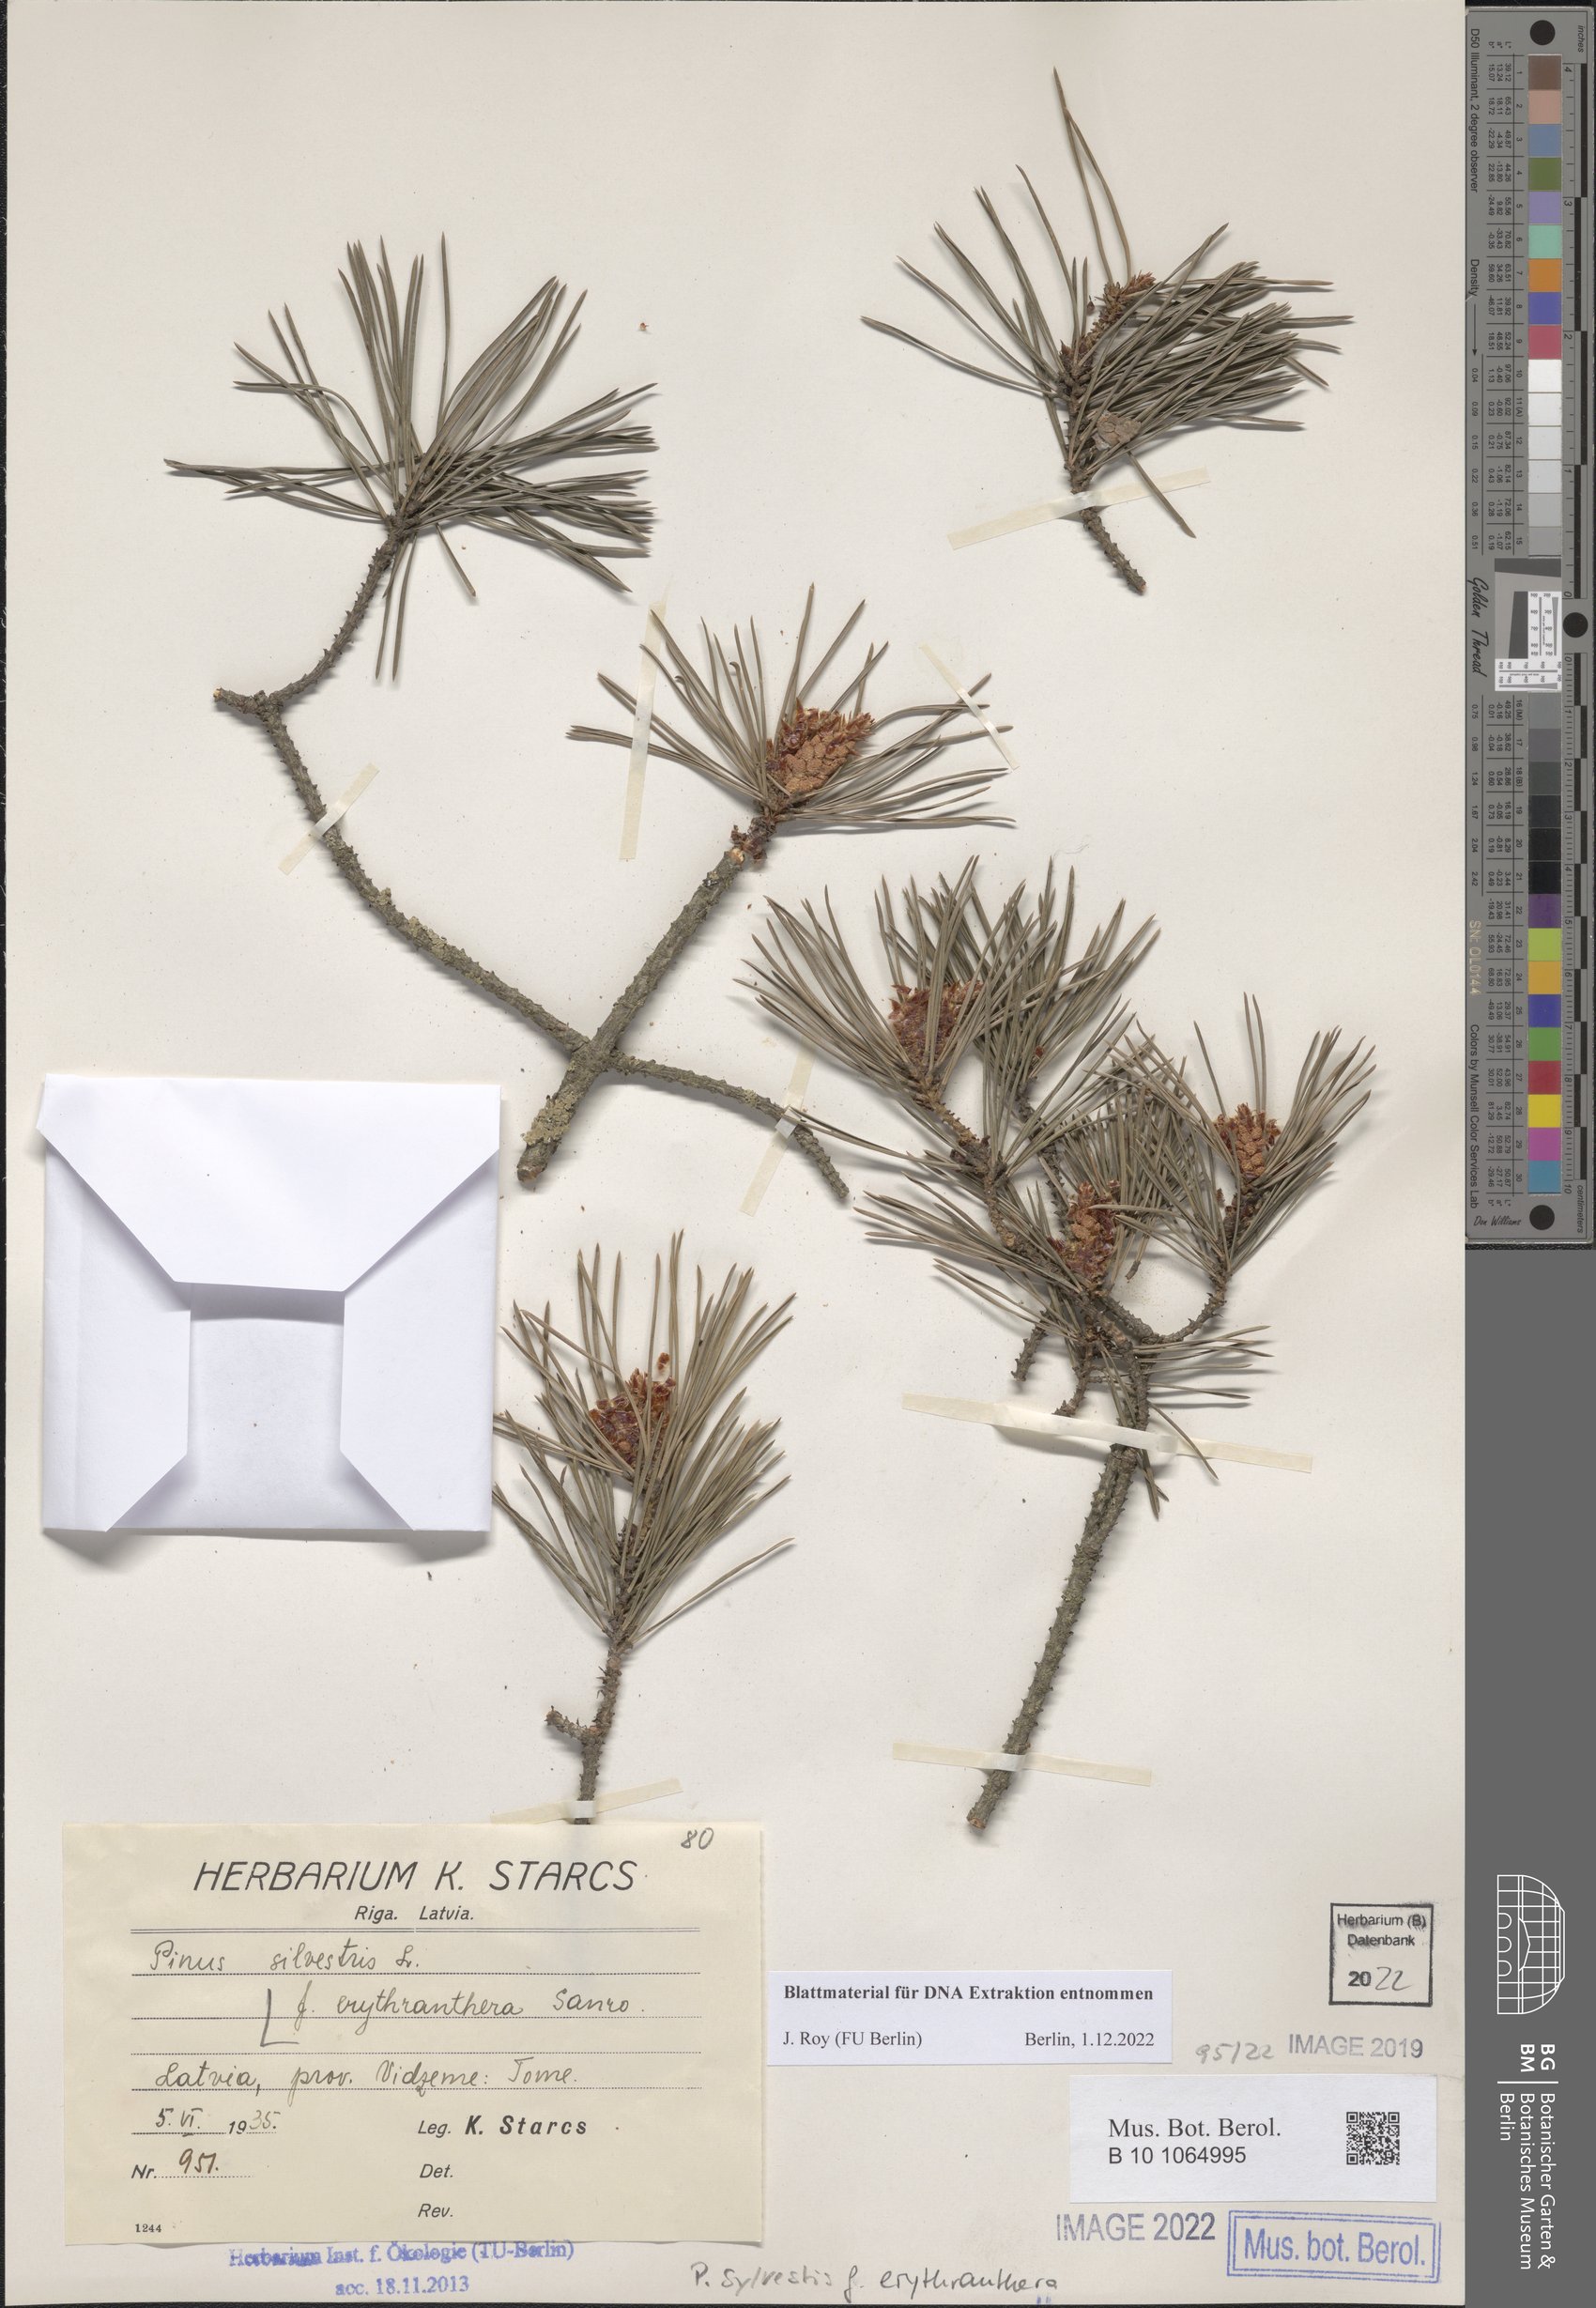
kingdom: Plantae
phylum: Tracheophyta
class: Pinopsida
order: Pinales
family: Pinaceae
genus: Pinus
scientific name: Pinus sylvestris
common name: Scots pine
